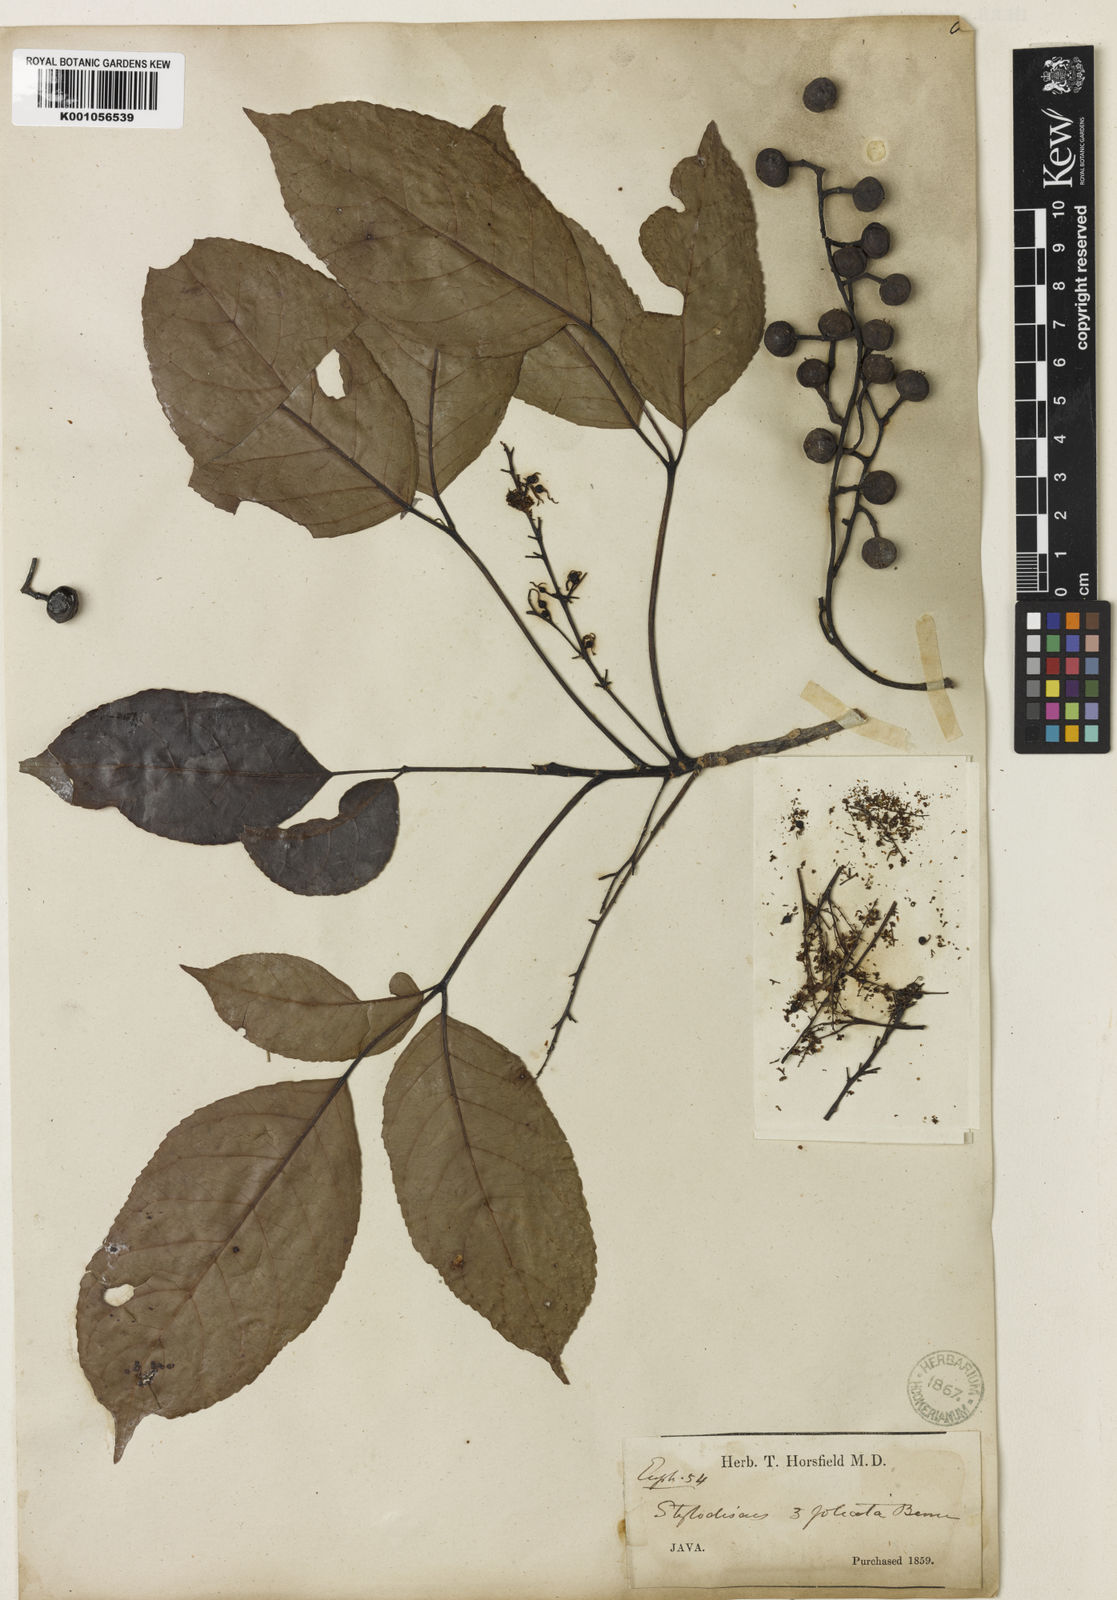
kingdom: Plantae
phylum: Tracheophyta
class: Magnoliopsida
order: Malpighiales
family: Phyllanthaceae
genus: Bischofia
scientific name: Bischofia javanica
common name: Javanese bishopwood
